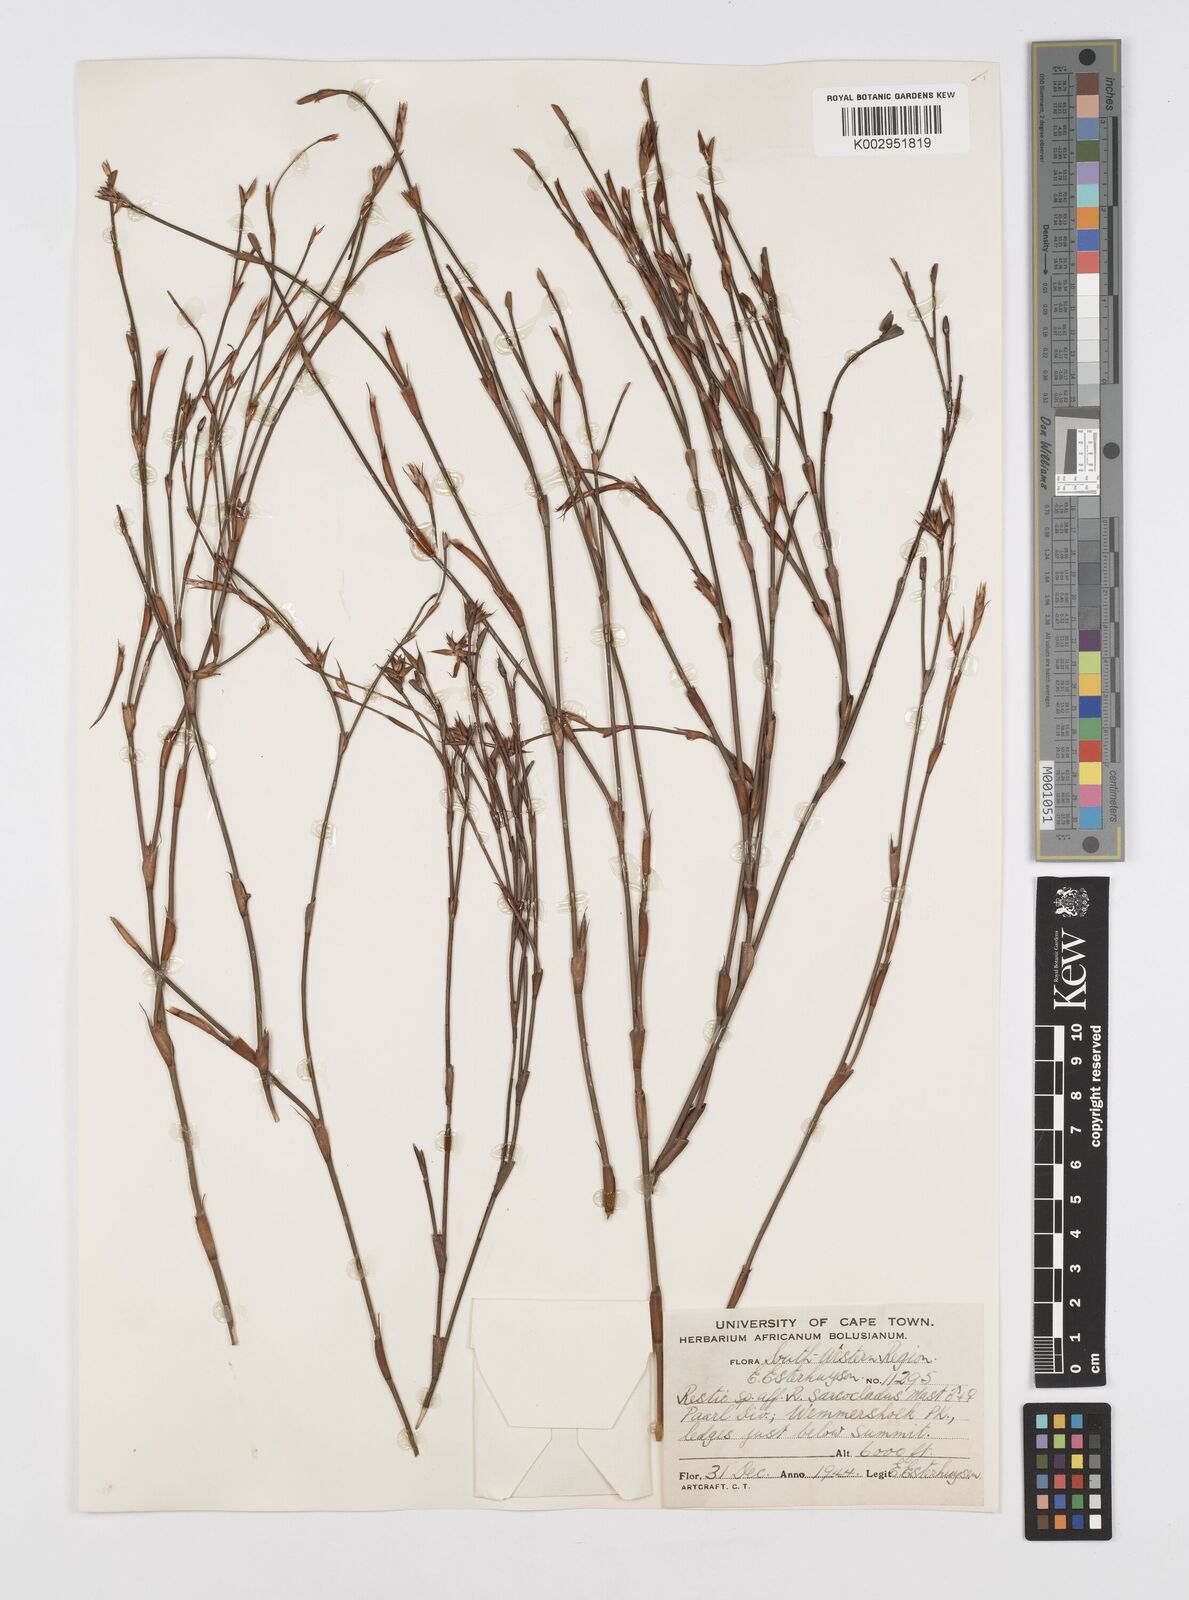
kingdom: Plantae
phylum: Tracheophyta
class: Liliopsida
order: Poales
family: Restionaceae
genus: Restio
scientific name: Restio saroclados
